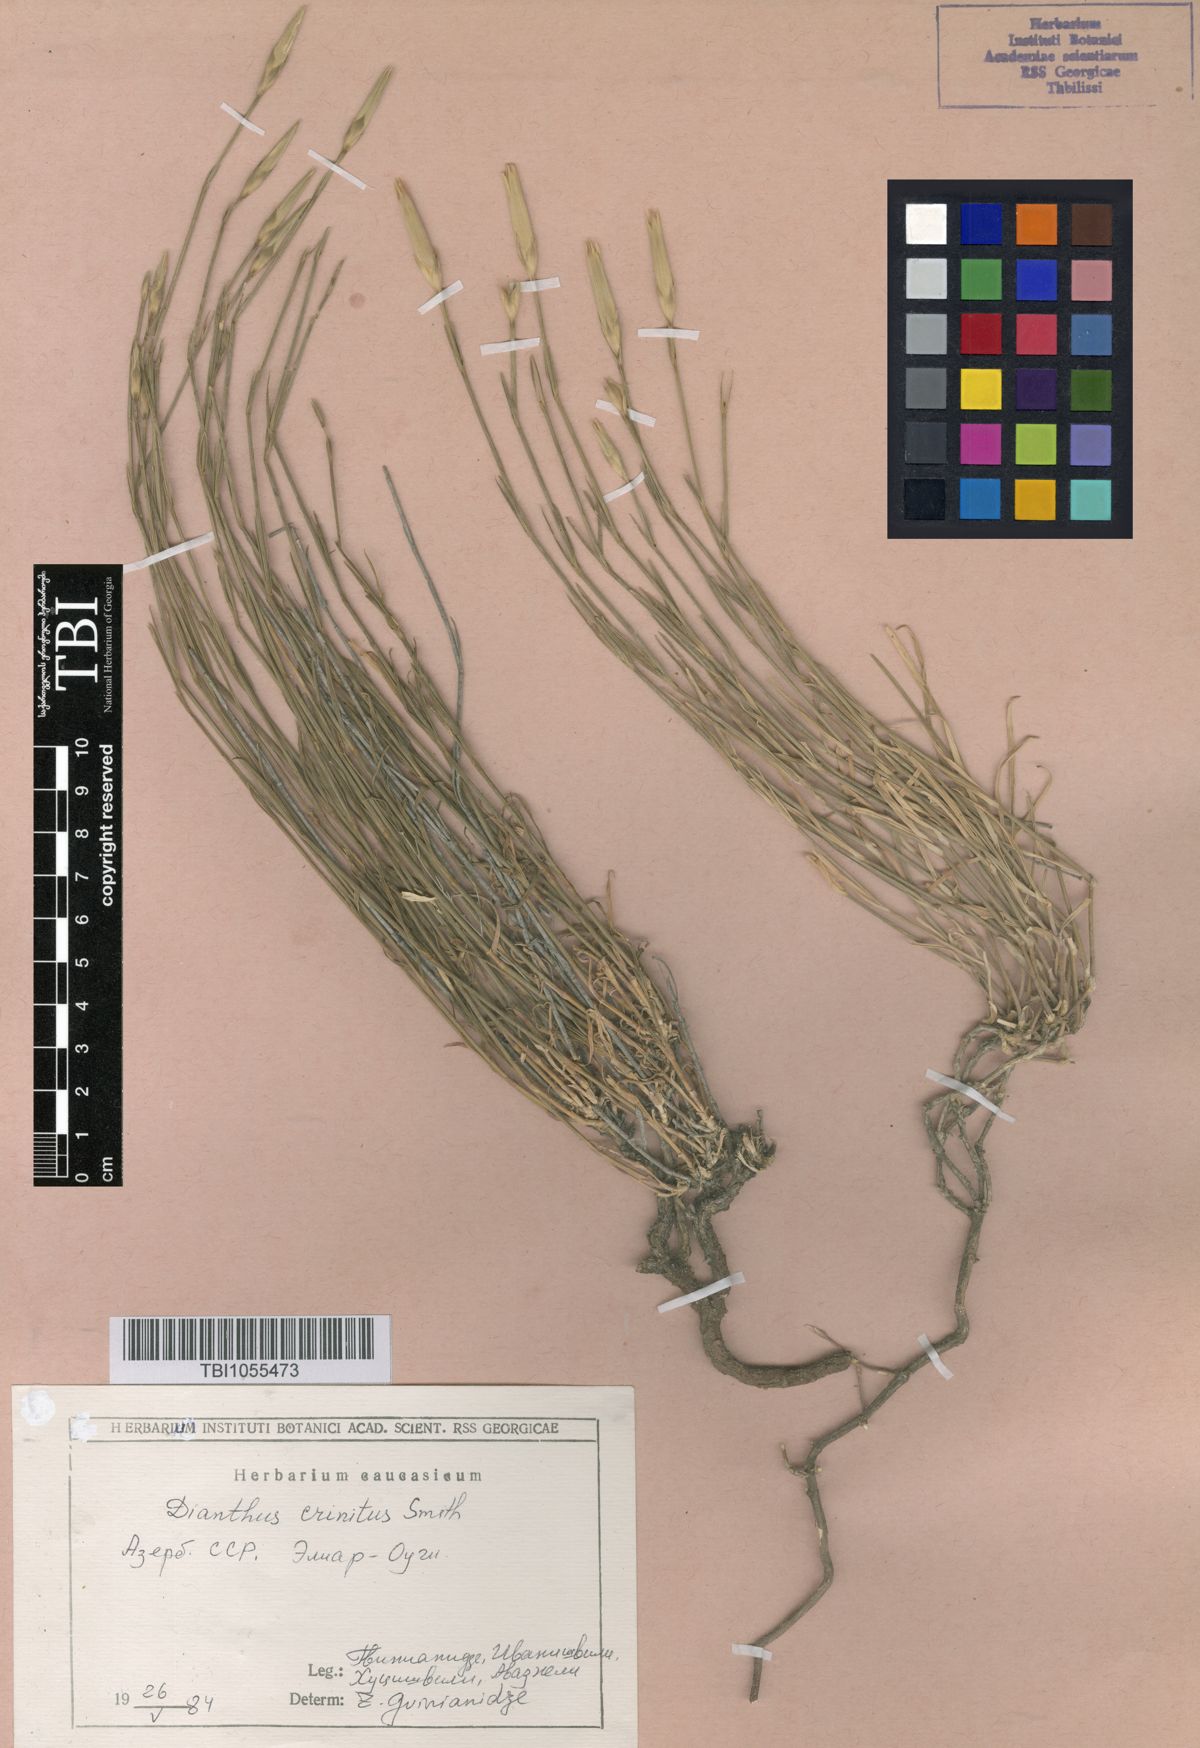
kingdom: Plantae
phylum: Tracheophyta
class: Magnoliopsida
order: Caryophyllales
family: Caryophyllaceae
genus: Dianthus
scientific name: Dianthus crinitus
